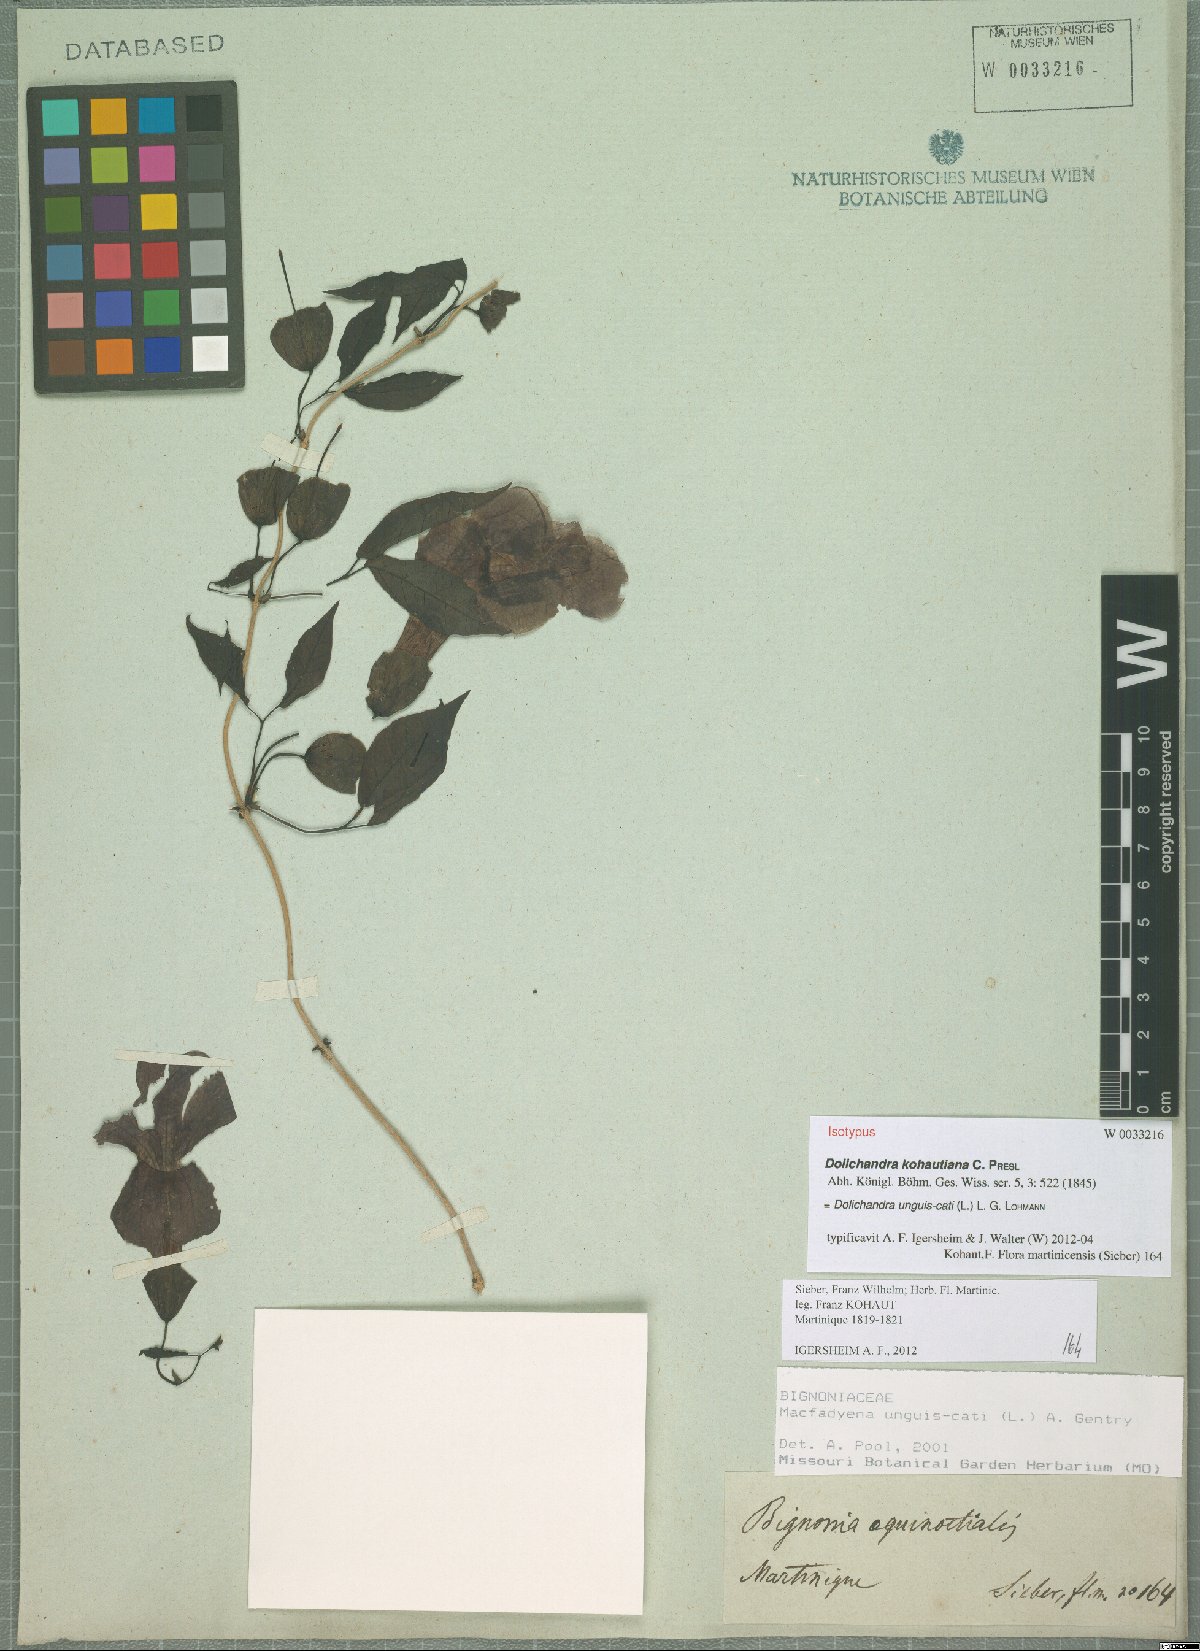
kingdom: Plantae
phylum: Tracheophyta
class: Magnoliopsida
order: Lamiales
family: Bignoniaceae
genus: Dolichandra
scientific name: Dolichandra unguis-cati
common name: Catclaw vine
